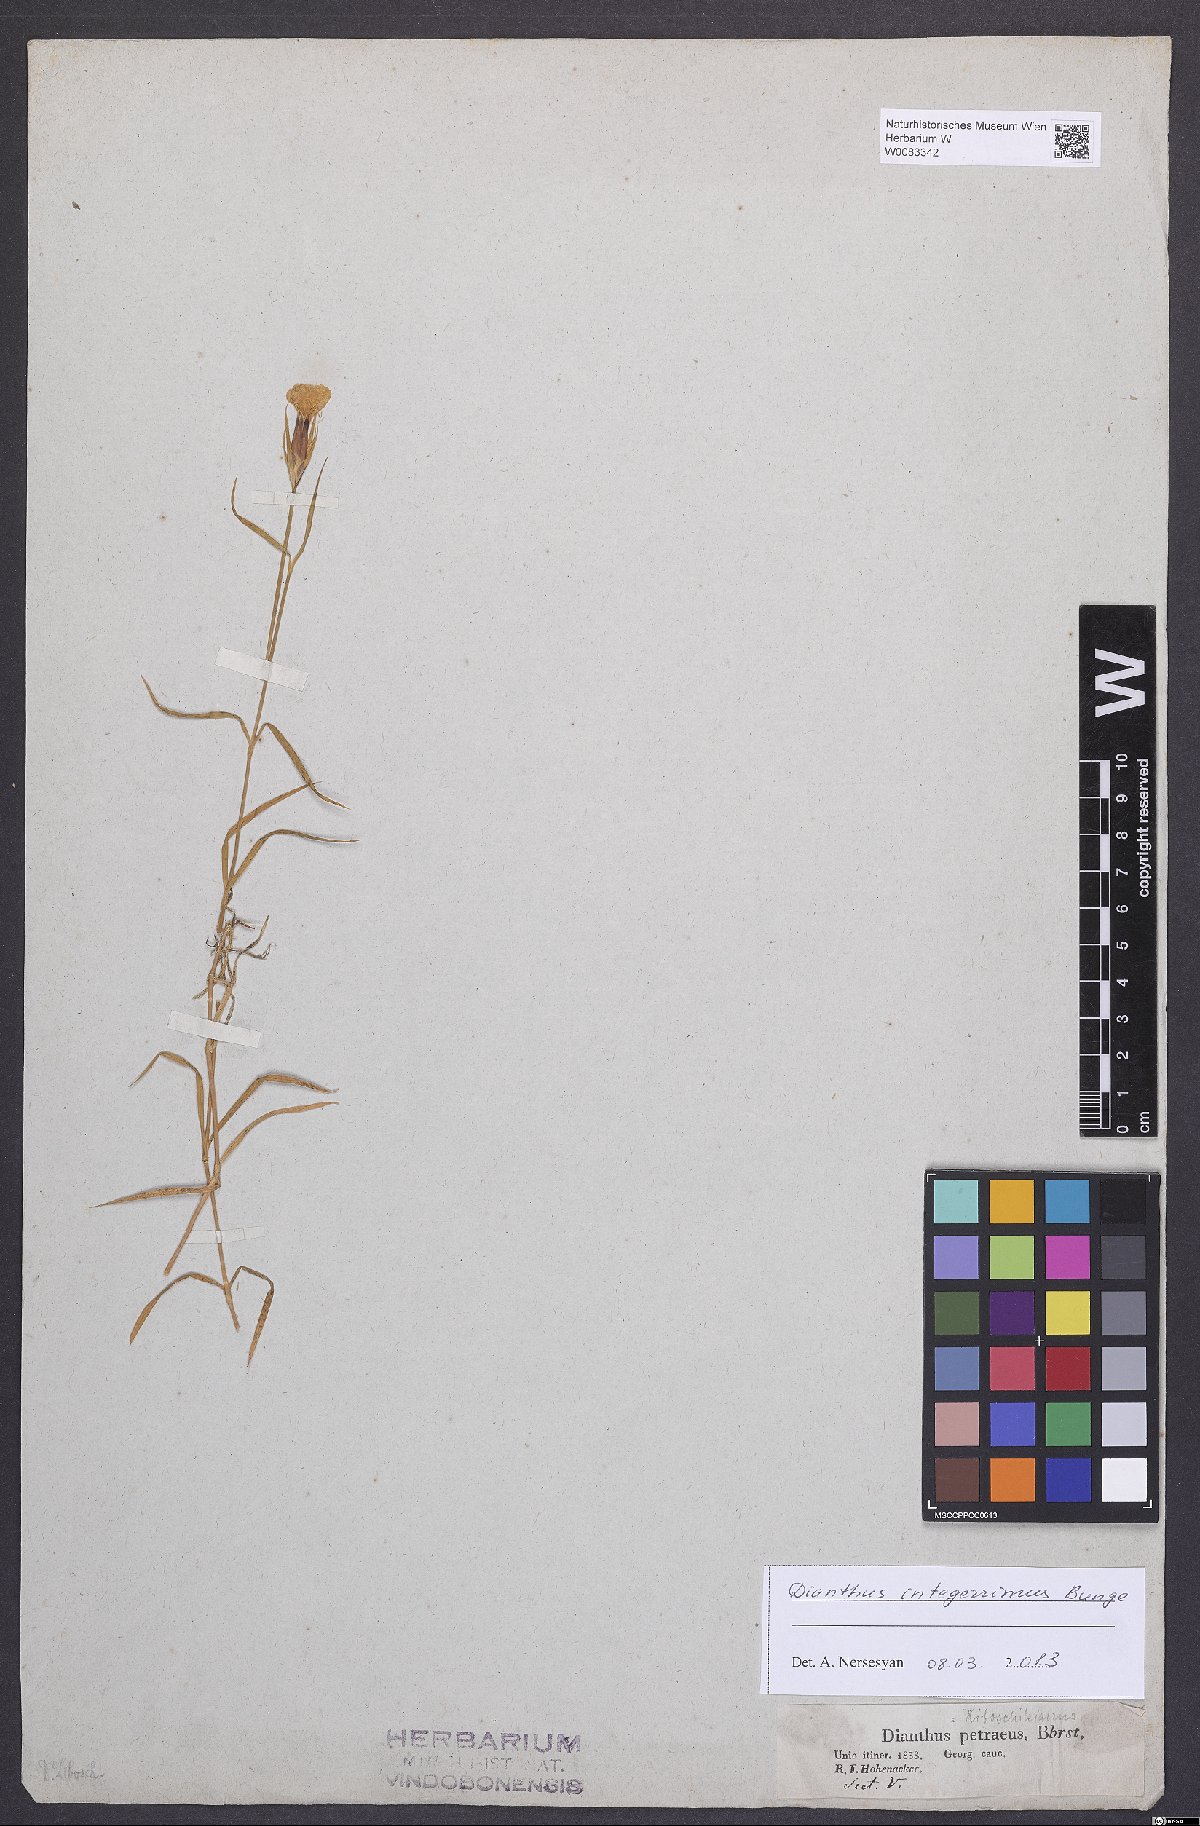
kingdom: Plantae
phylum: Tracheophyta
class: Magnoliopsida
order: Caryophyllales
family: Caryophyllaceae
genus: Dianthus
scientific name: Dianthus cretaceus
